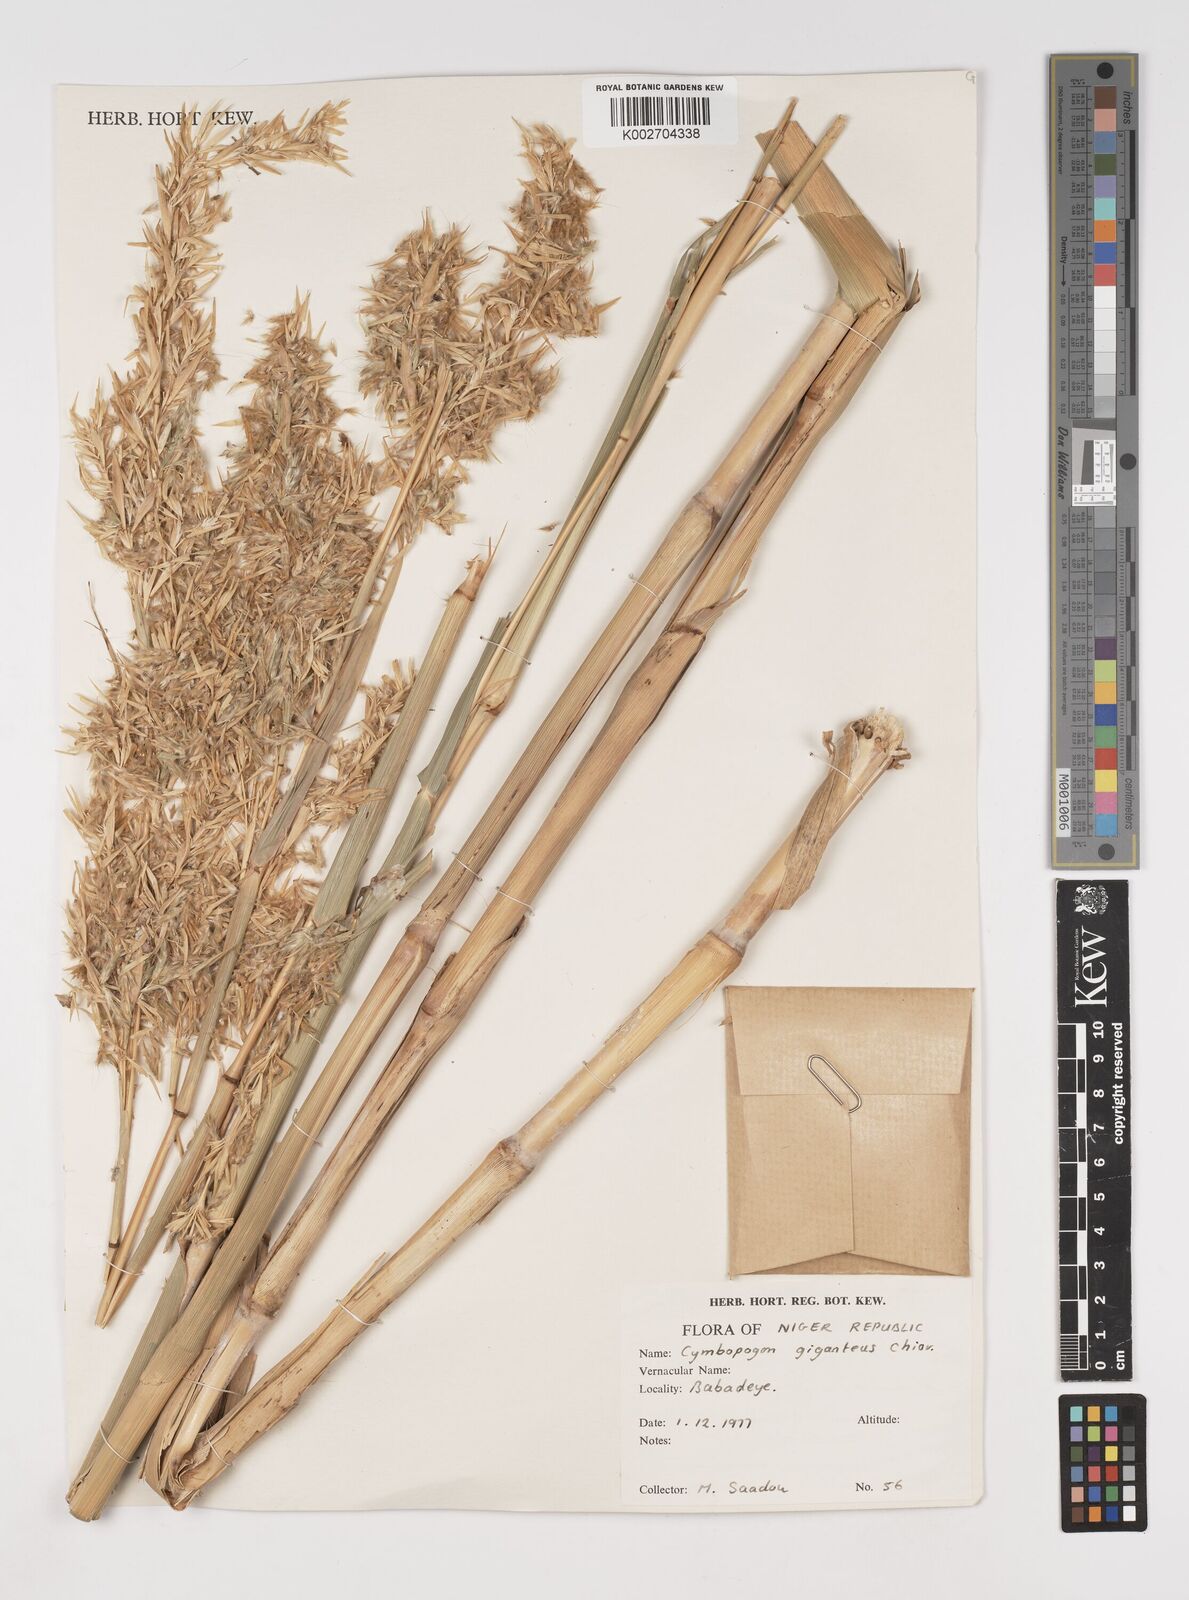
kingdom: Plantae
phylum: Tracheophyta
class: Liliopsida
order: Poales
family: Poaceae
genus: Cymbopogon
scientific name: Cymbopogon giganteus
